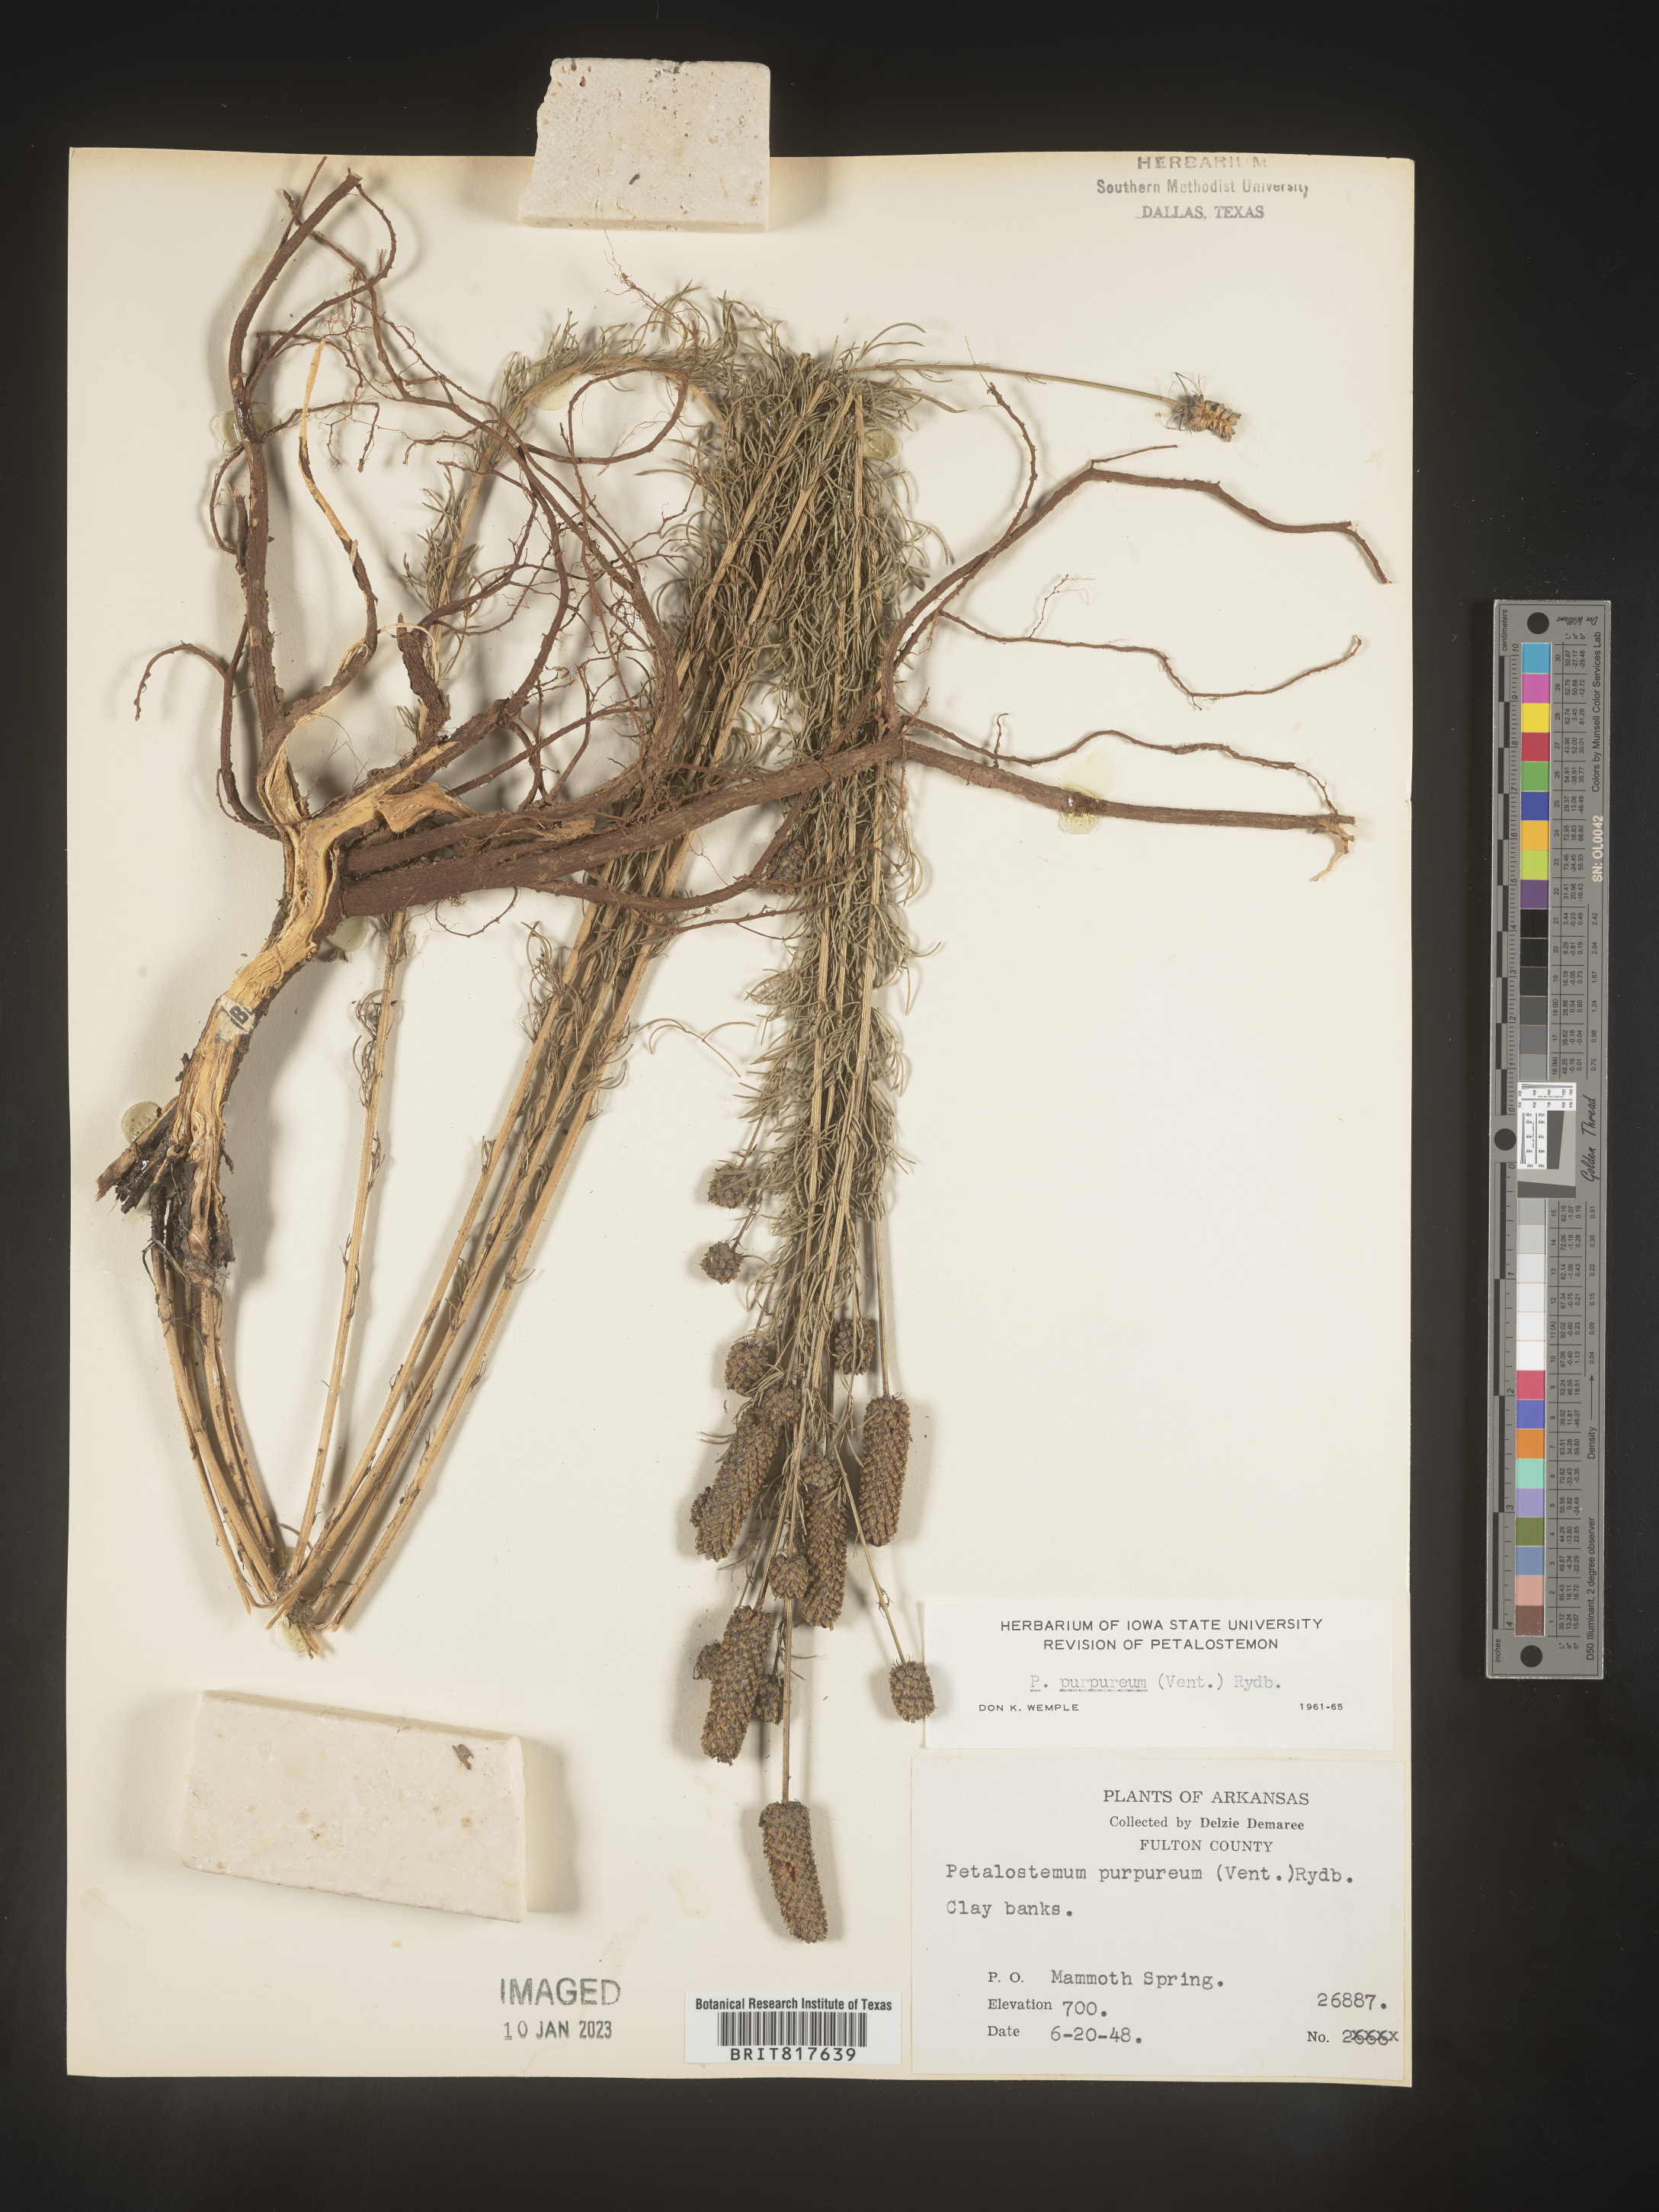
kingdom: Plantae
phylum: Tracheophyta
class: Magnoliopsida
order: Fabales
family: Fabaceae
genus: Dalea
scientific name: Dalea purpurea
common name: Purple prairie-clover
